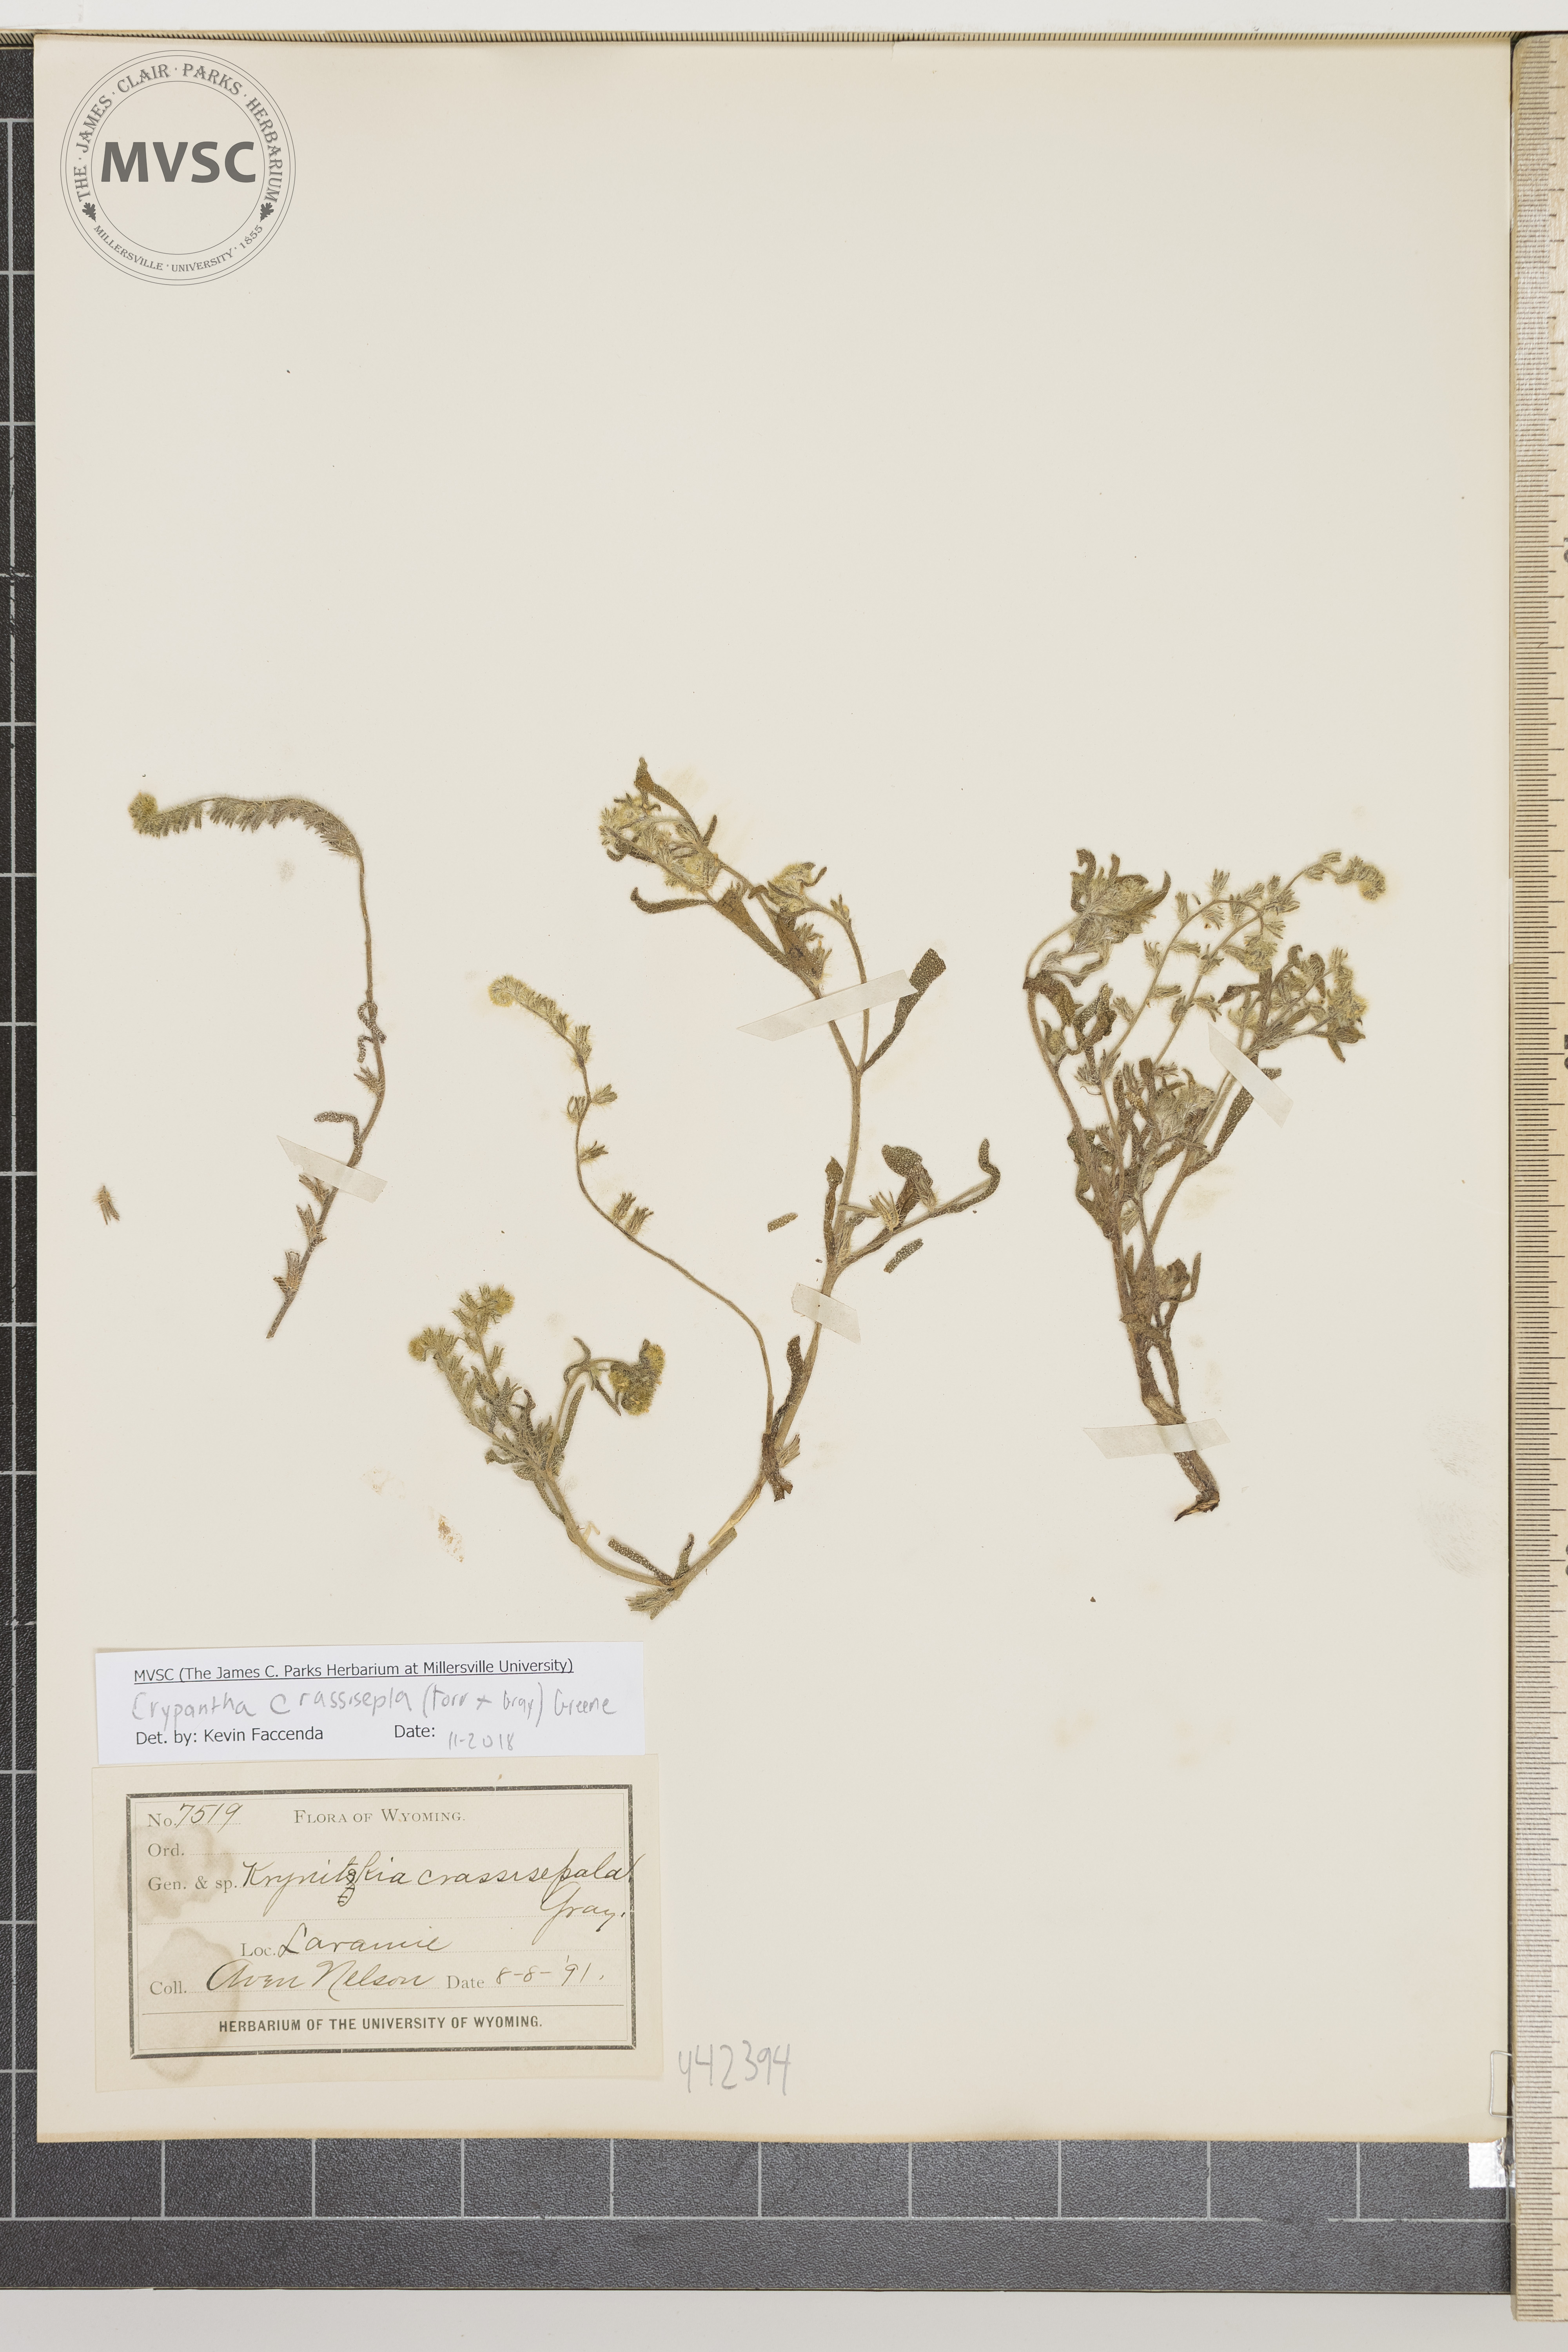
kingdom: Plantae
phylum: Tracheophyta
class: Magnoliopsida
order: Boraginales
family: Boraginaceae
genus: Cryptantha
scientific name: Cryptantha crassisepala
